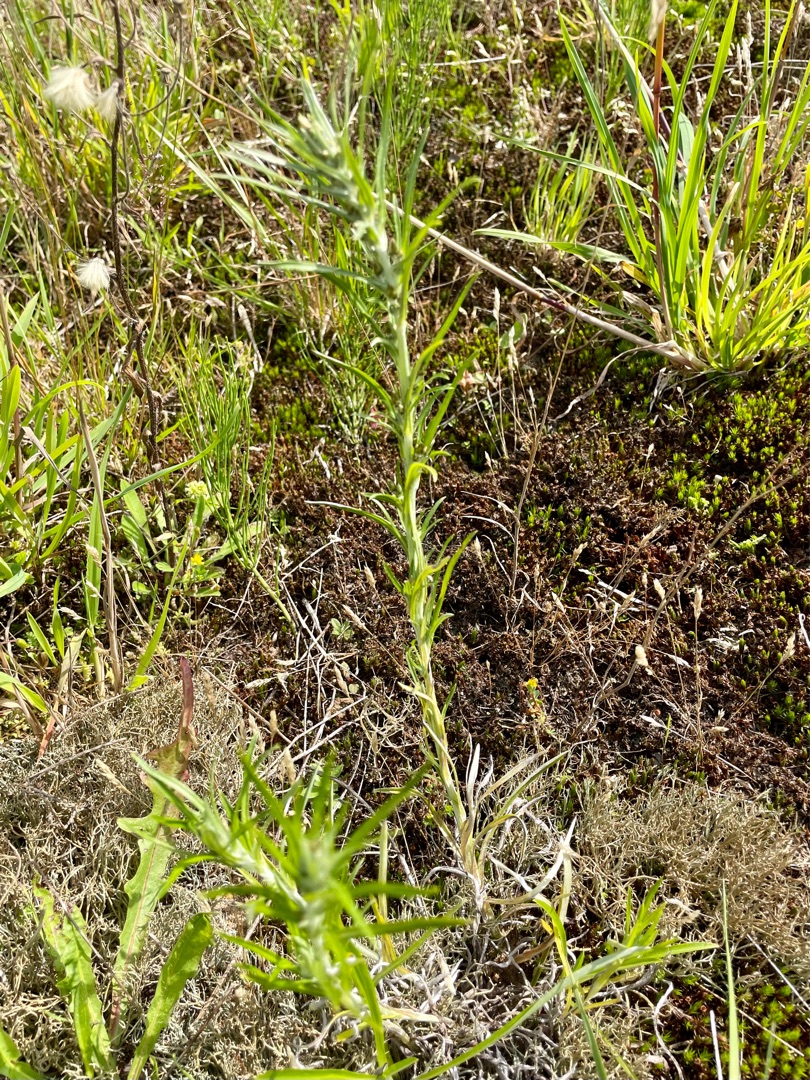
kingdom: Plantae
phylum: Tracheophyta
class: Magnoliopsida
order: Asterales
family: Asteraceae
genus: Omalotheca
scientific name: Omalotheca sylvatica
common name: Rank evighedsblomst
